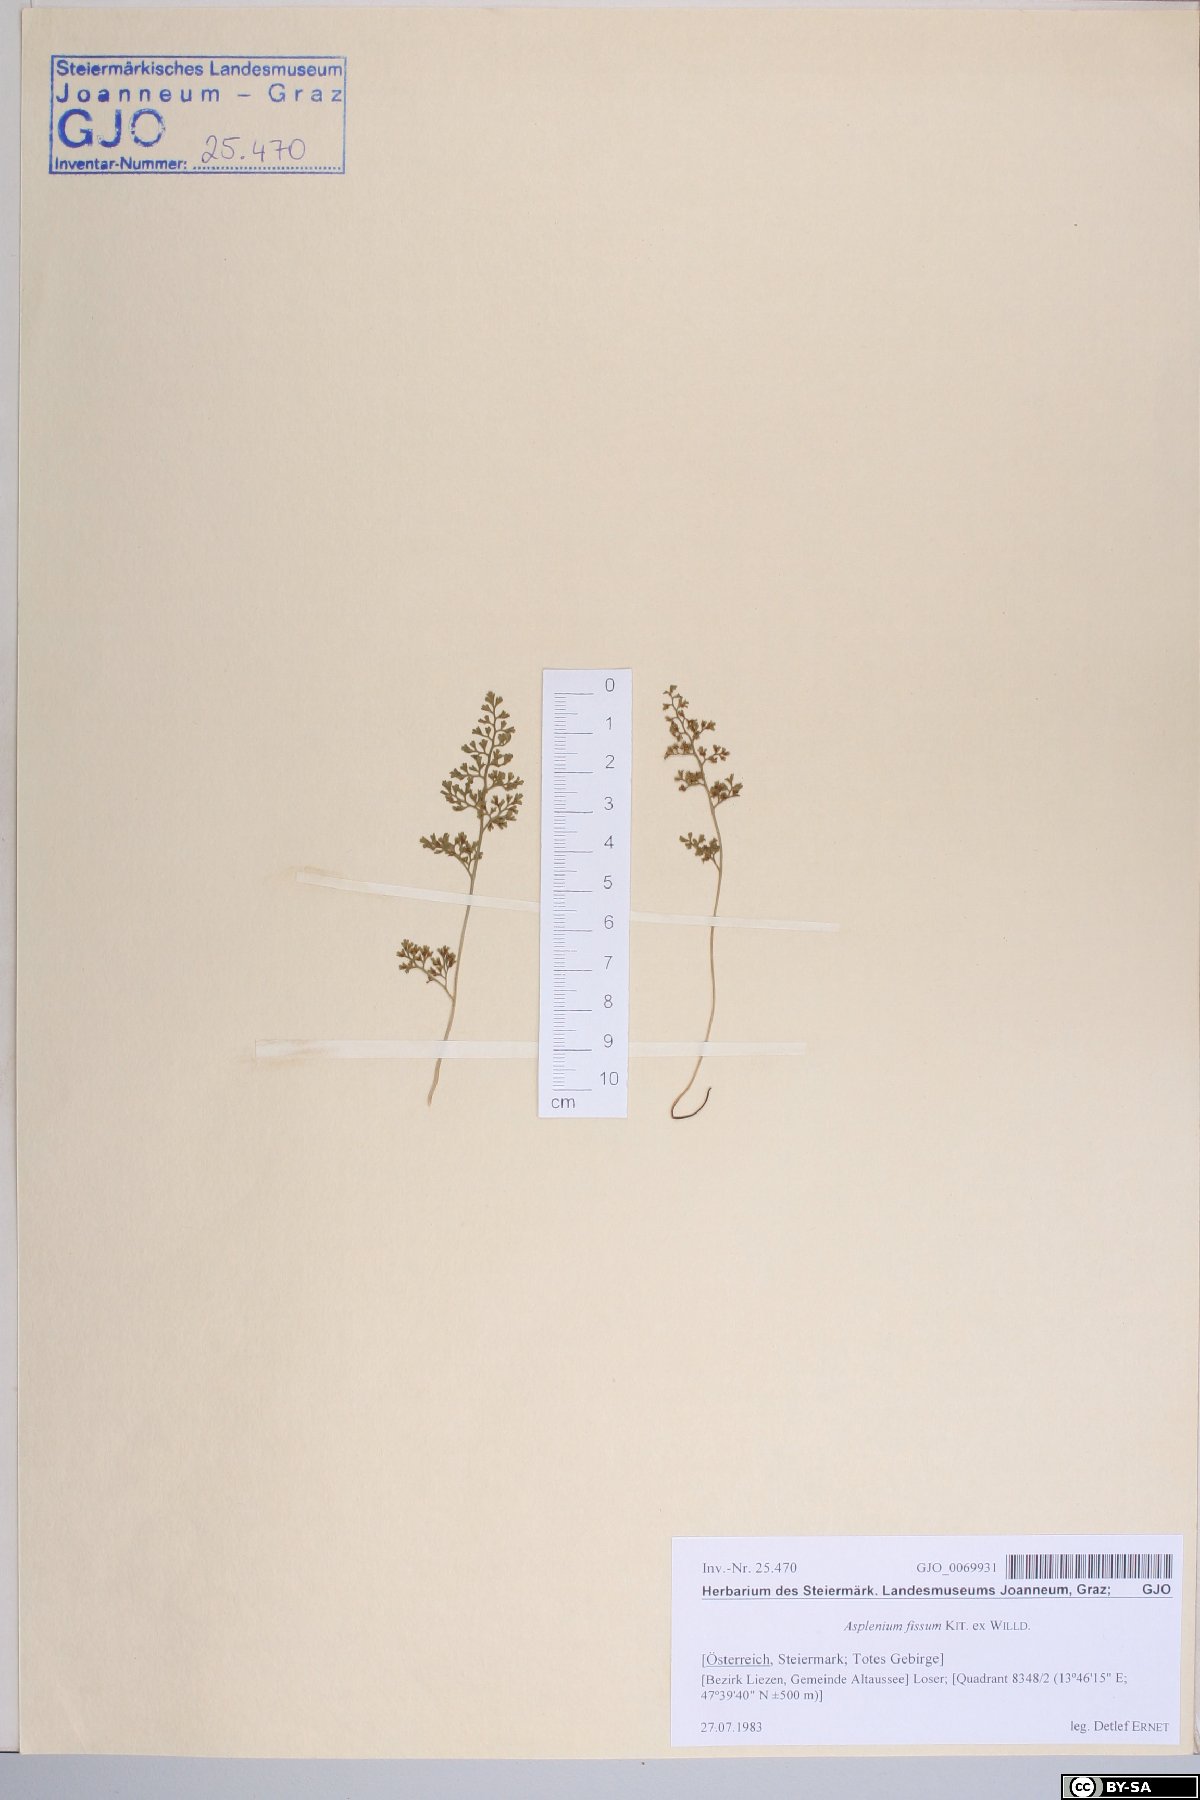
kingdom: Plantae
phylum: Tracheophyta
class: Polypodiopsida
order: Polypodiales
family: Aspleniaceae
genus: Asplenium
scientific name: Asplenium fissum
